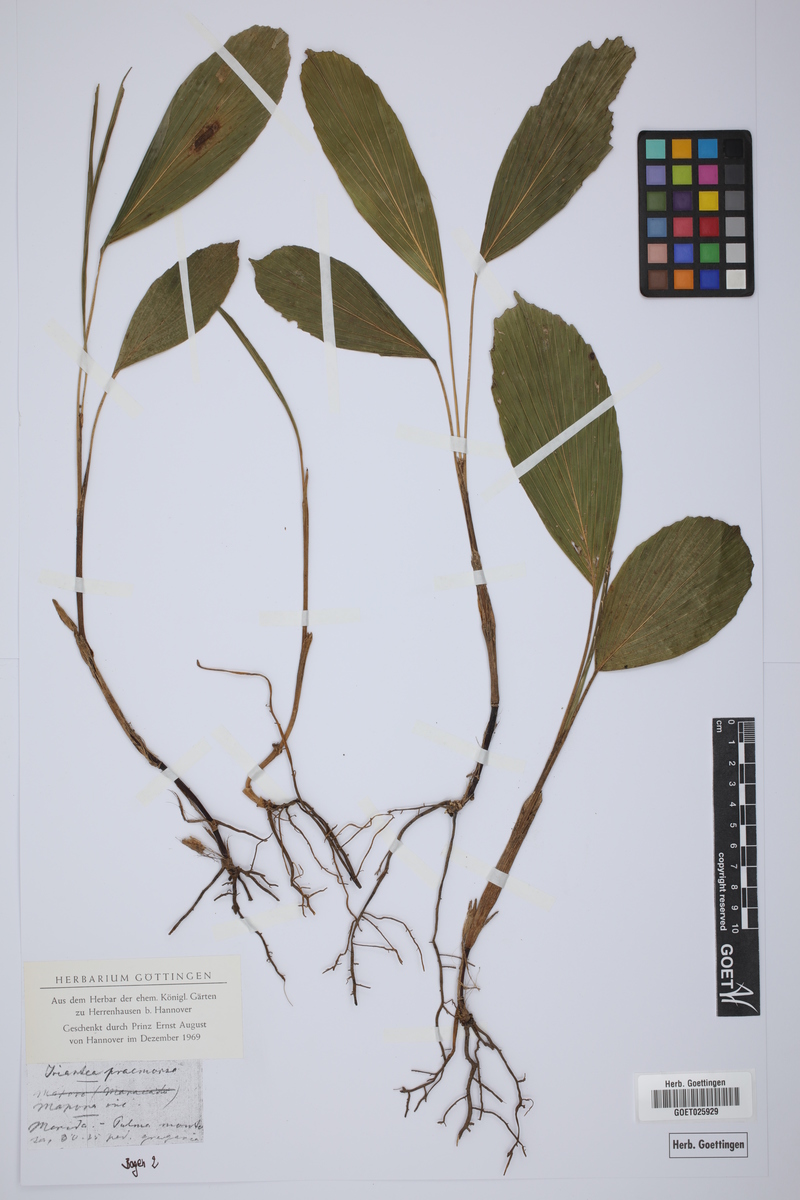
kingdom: Plantae
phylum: Tracheophyta
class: Liliopsida
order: Arecales
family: Arecaceae
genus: Wettinia
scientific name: Wettinia praemorsa
